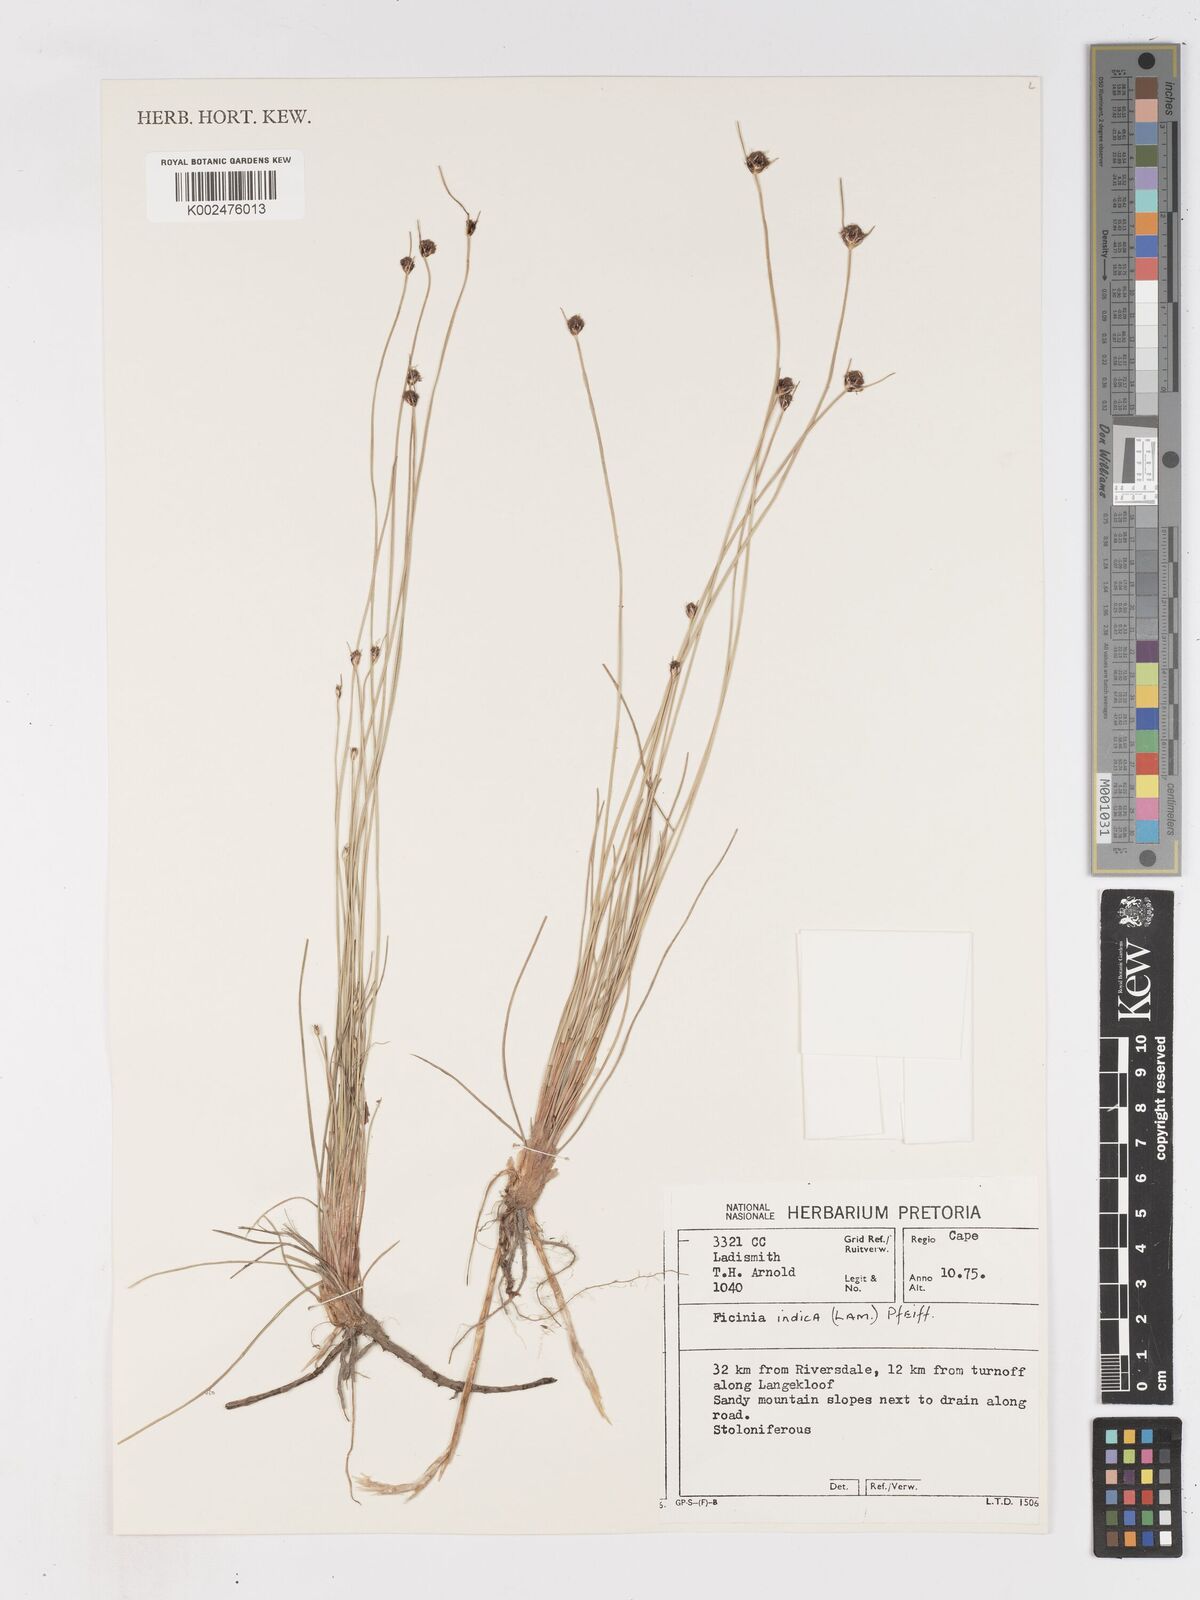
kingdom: Plantae
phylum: Tracheophyta
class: Liliopsida
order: Poales
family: Cyperaceae
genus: Ficinia
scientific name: Ficinia indica
